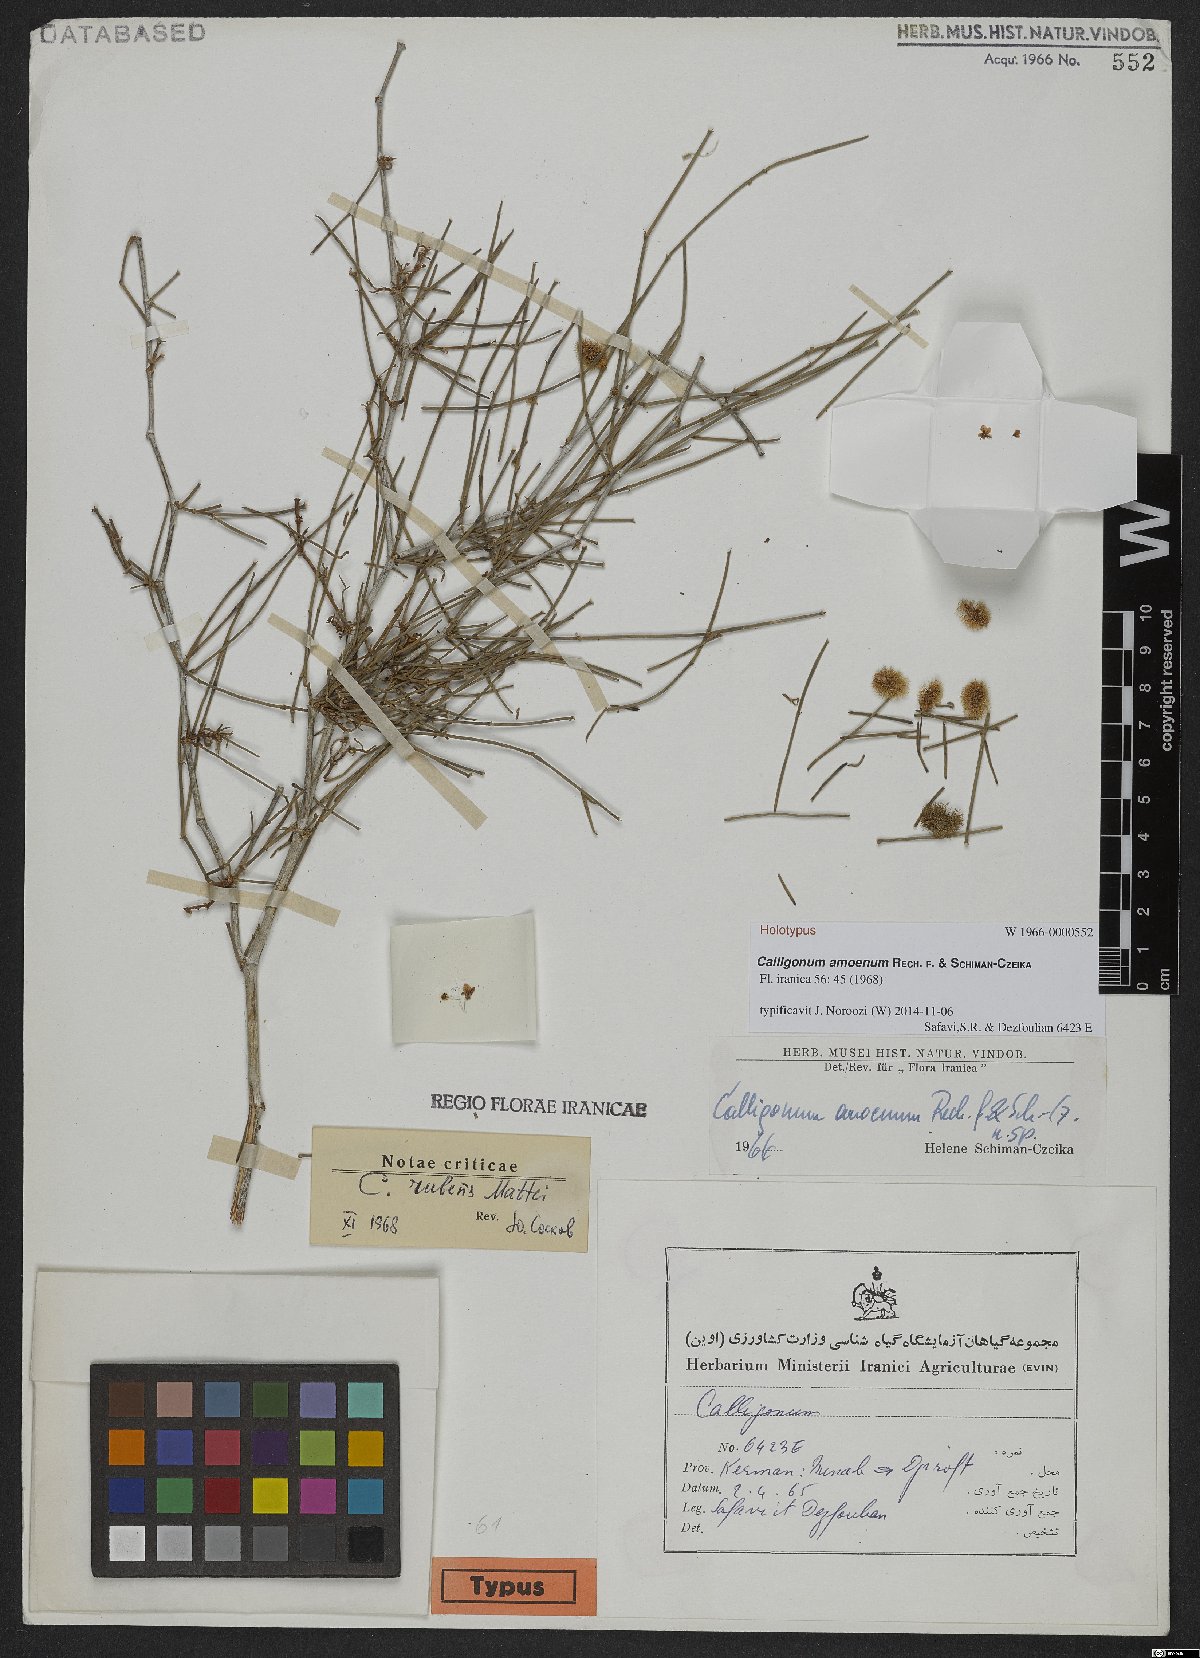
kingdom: Plantae
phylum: Tracheophyta
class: Magnoliopsida
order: Caryophyllales
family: Polygonaceae
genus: Calligonum
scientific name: Calligonum mongolicum
